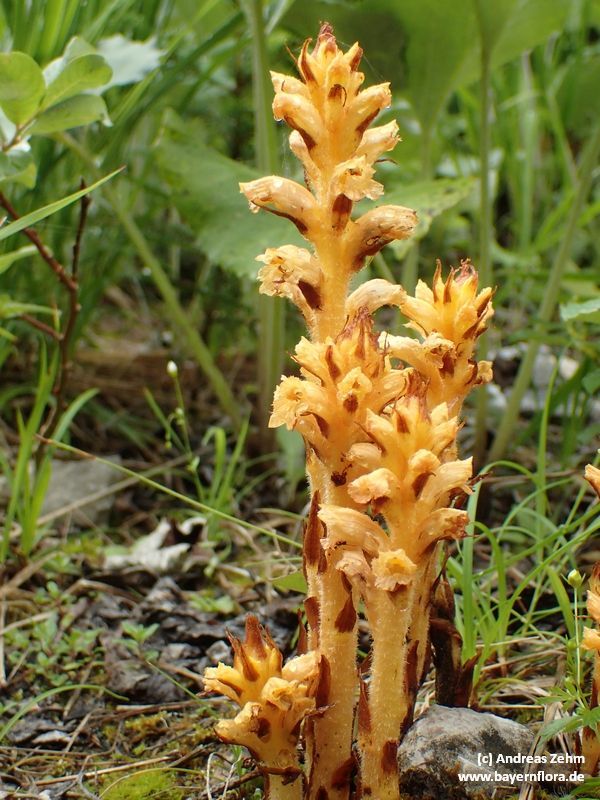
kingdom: Plantae
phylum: Tracheophyta
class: Magnoliopsida
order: Lamiales
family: Orobanchaceae
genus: Orobanche
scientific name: Orobanche flava
